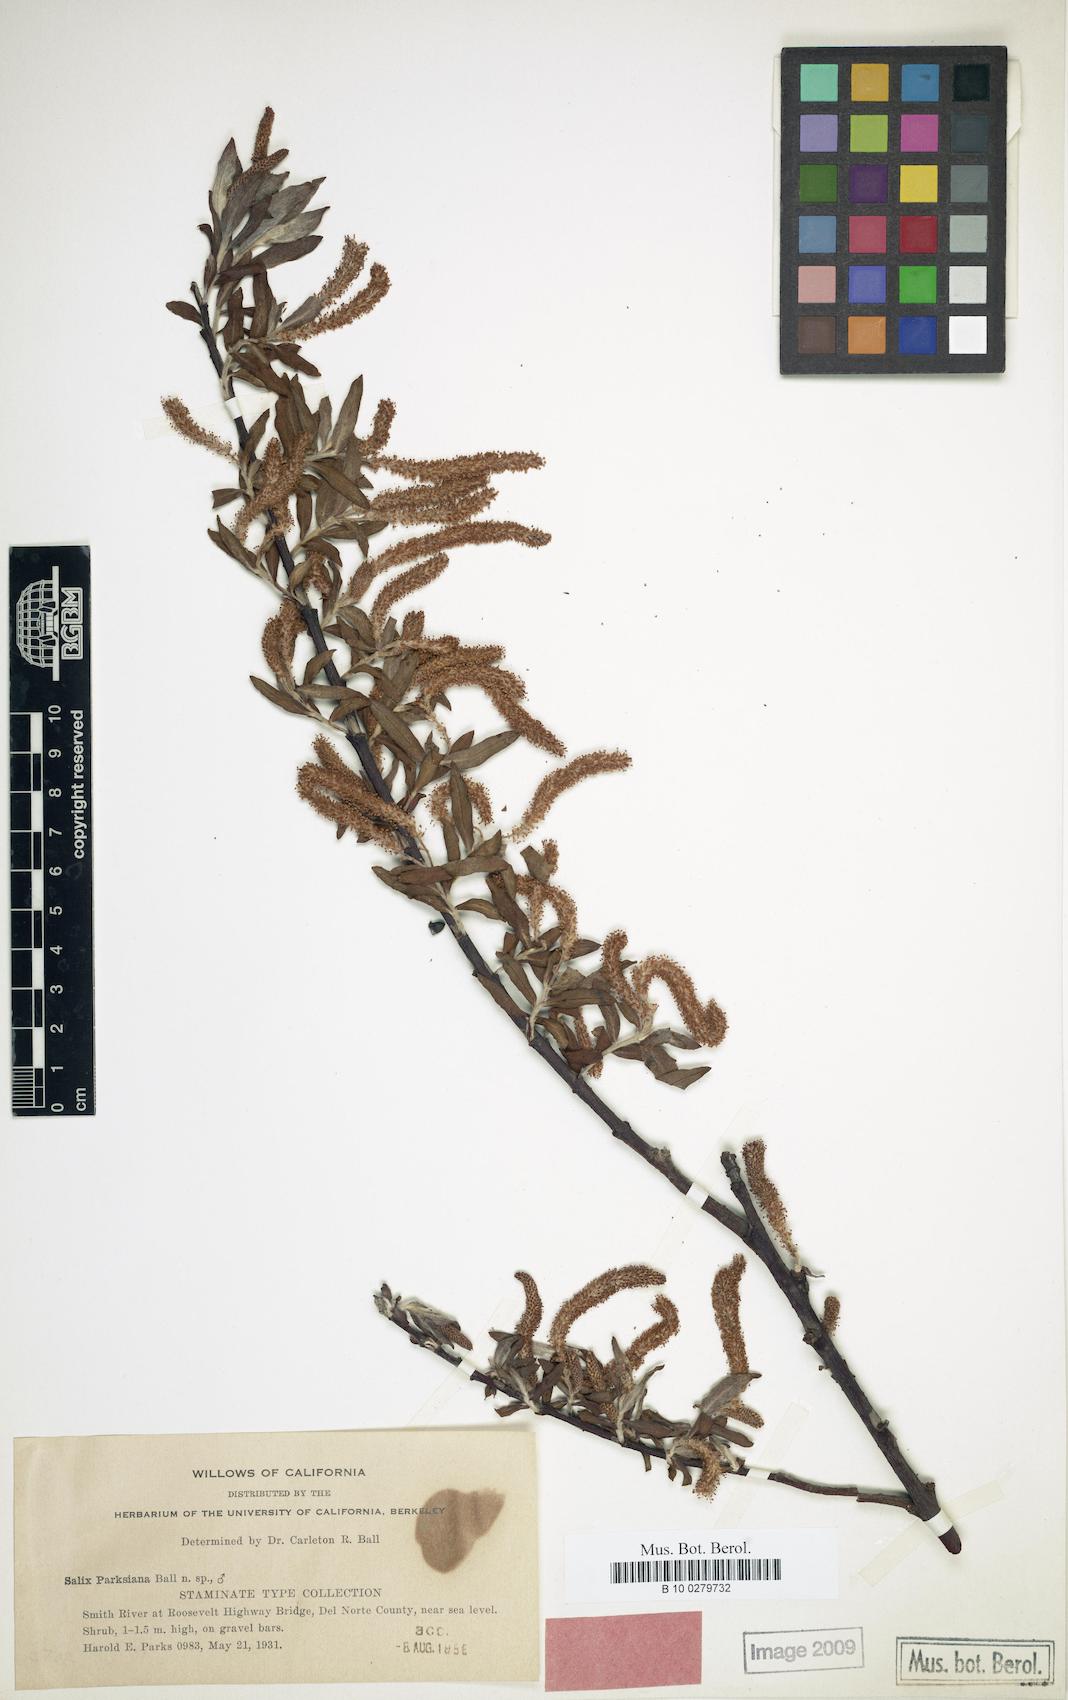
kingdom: Plantae
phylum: Tracheophyta
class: Magnoliopsida
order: Malpighiales
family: Salicaceae
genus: Salix
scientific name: Salix melanopsis
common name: Dusky willow
